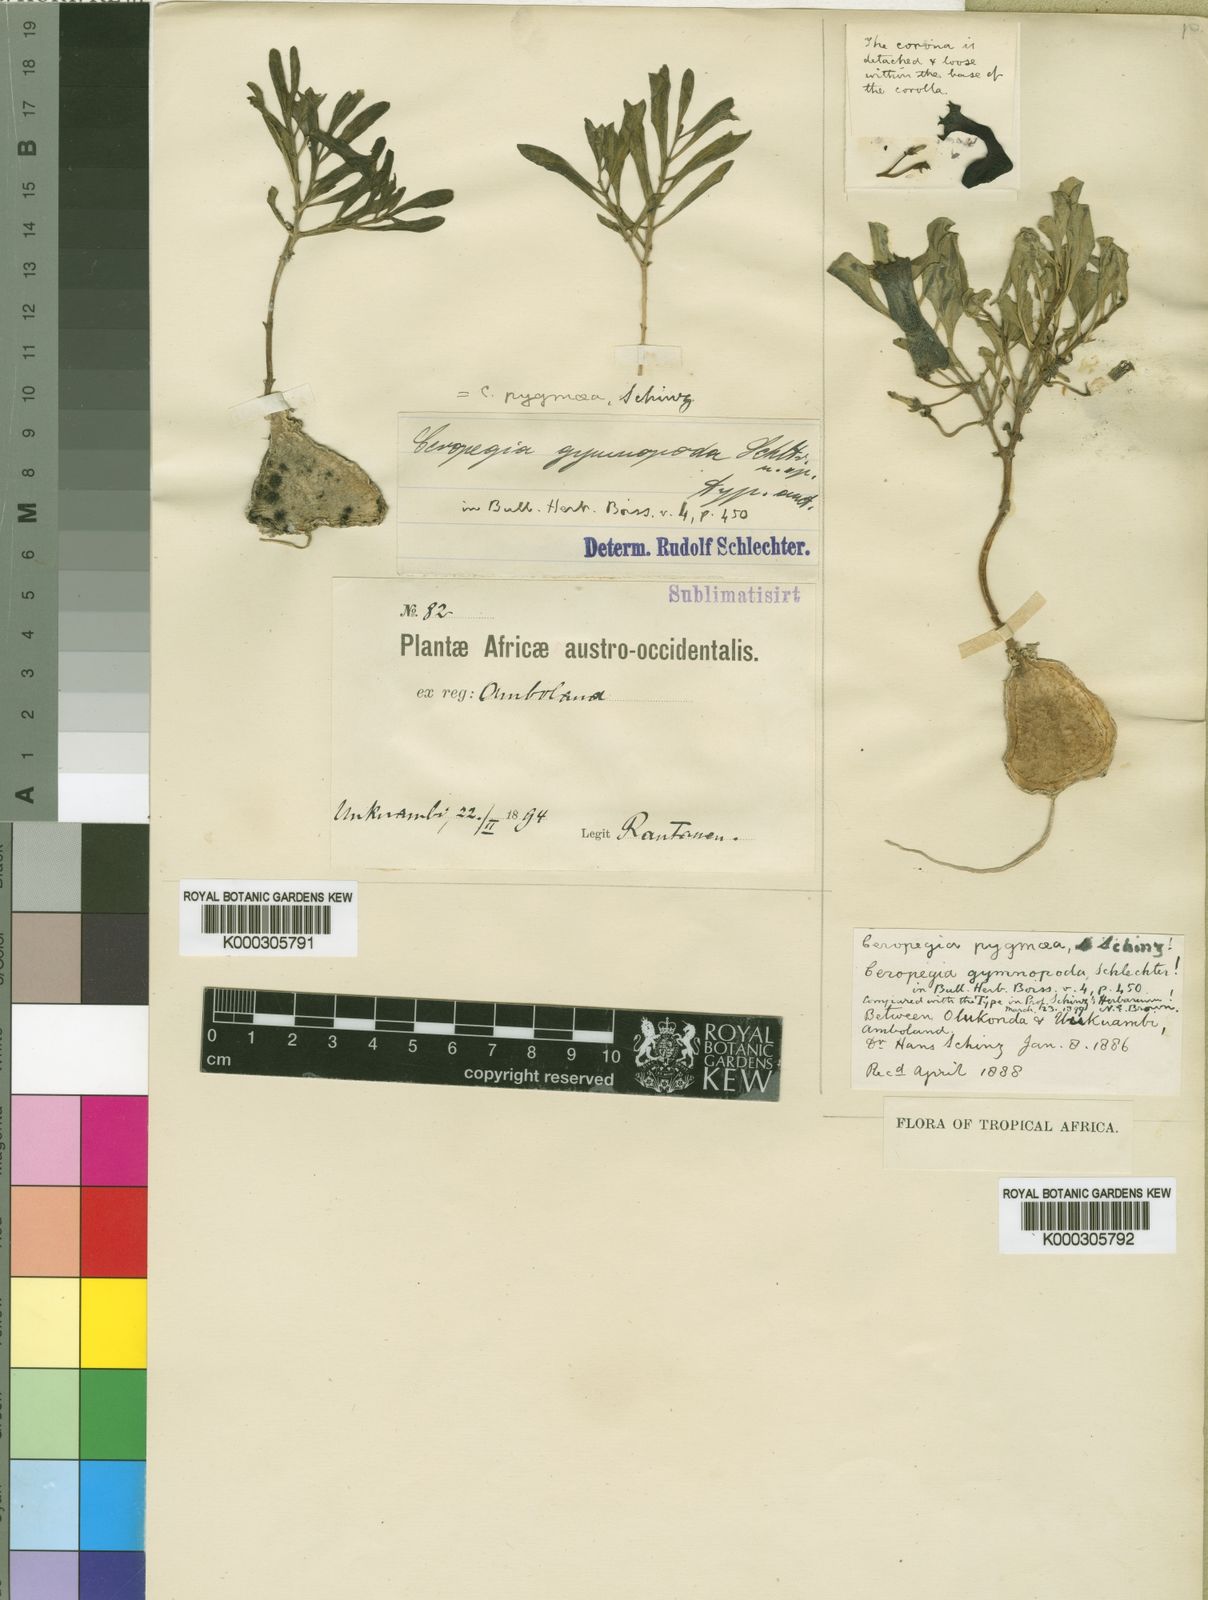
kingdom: Plantae
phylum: Tracheophyta
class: Magnoliopsida
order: Gentianales
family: Apocynaceae
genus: Ceropegia
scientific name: Ceropegia pygmaea
